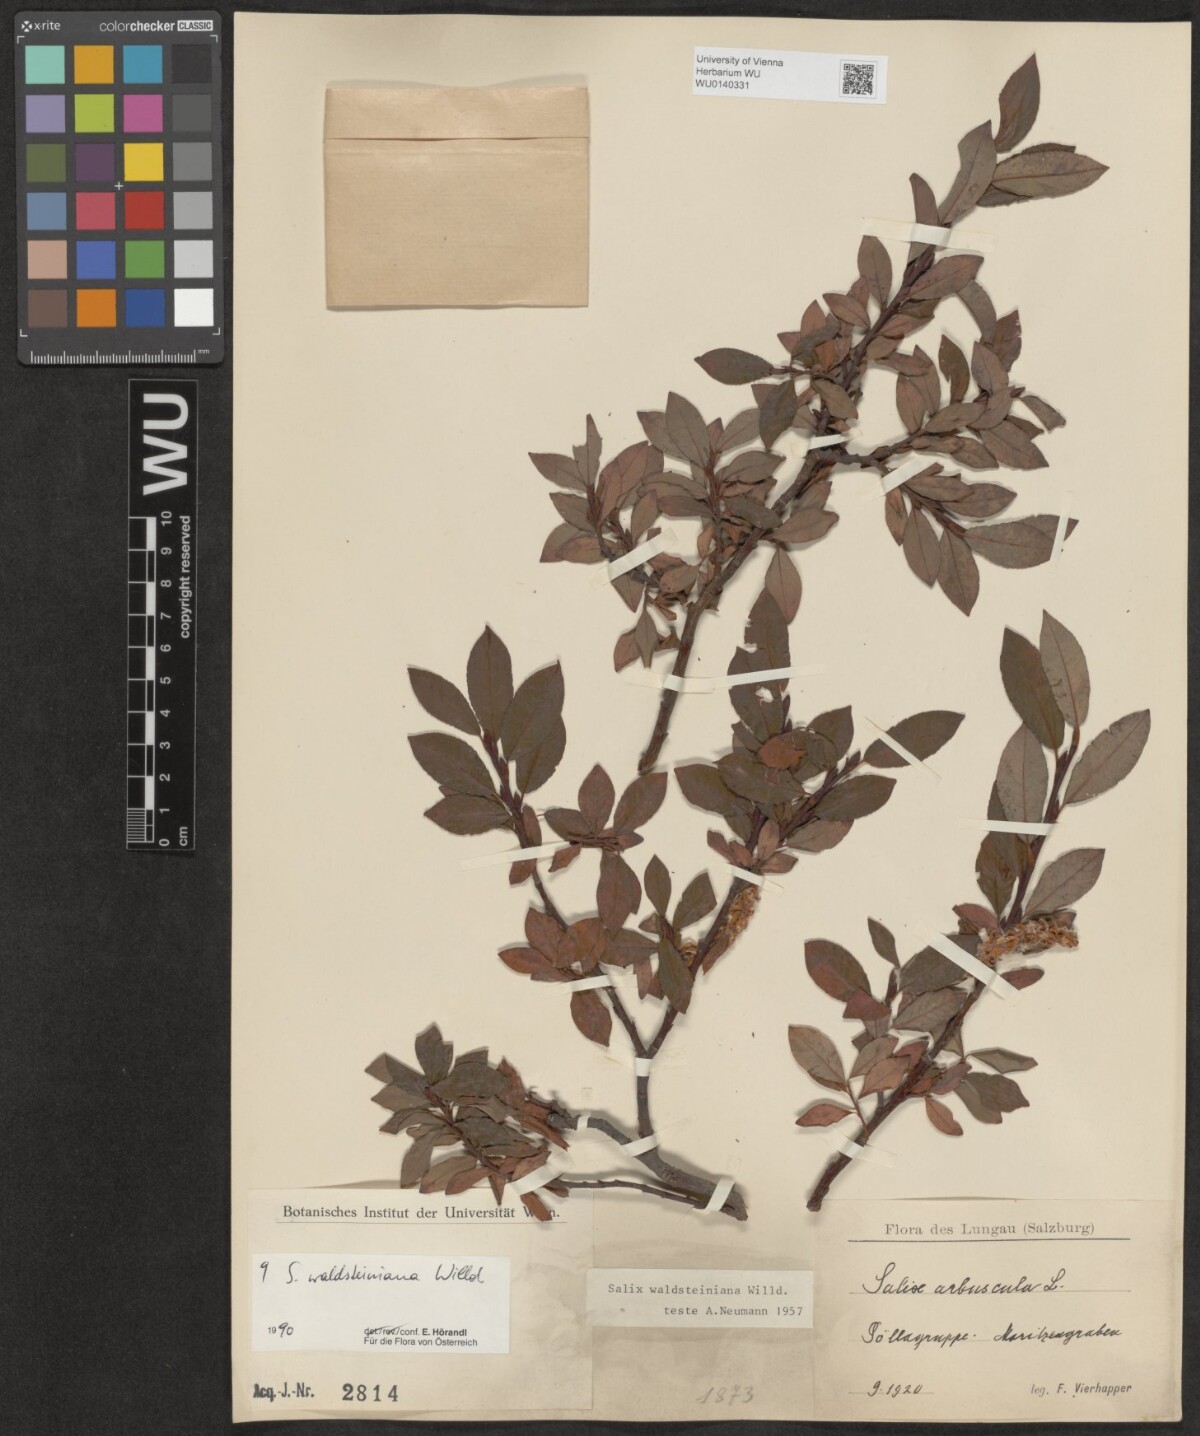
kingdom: Plantae
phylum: Tracheophyta
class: Magnoliopsida
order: Malpighiales
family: Salicaceae
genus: Salix
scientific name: Salix waldsteiniana
